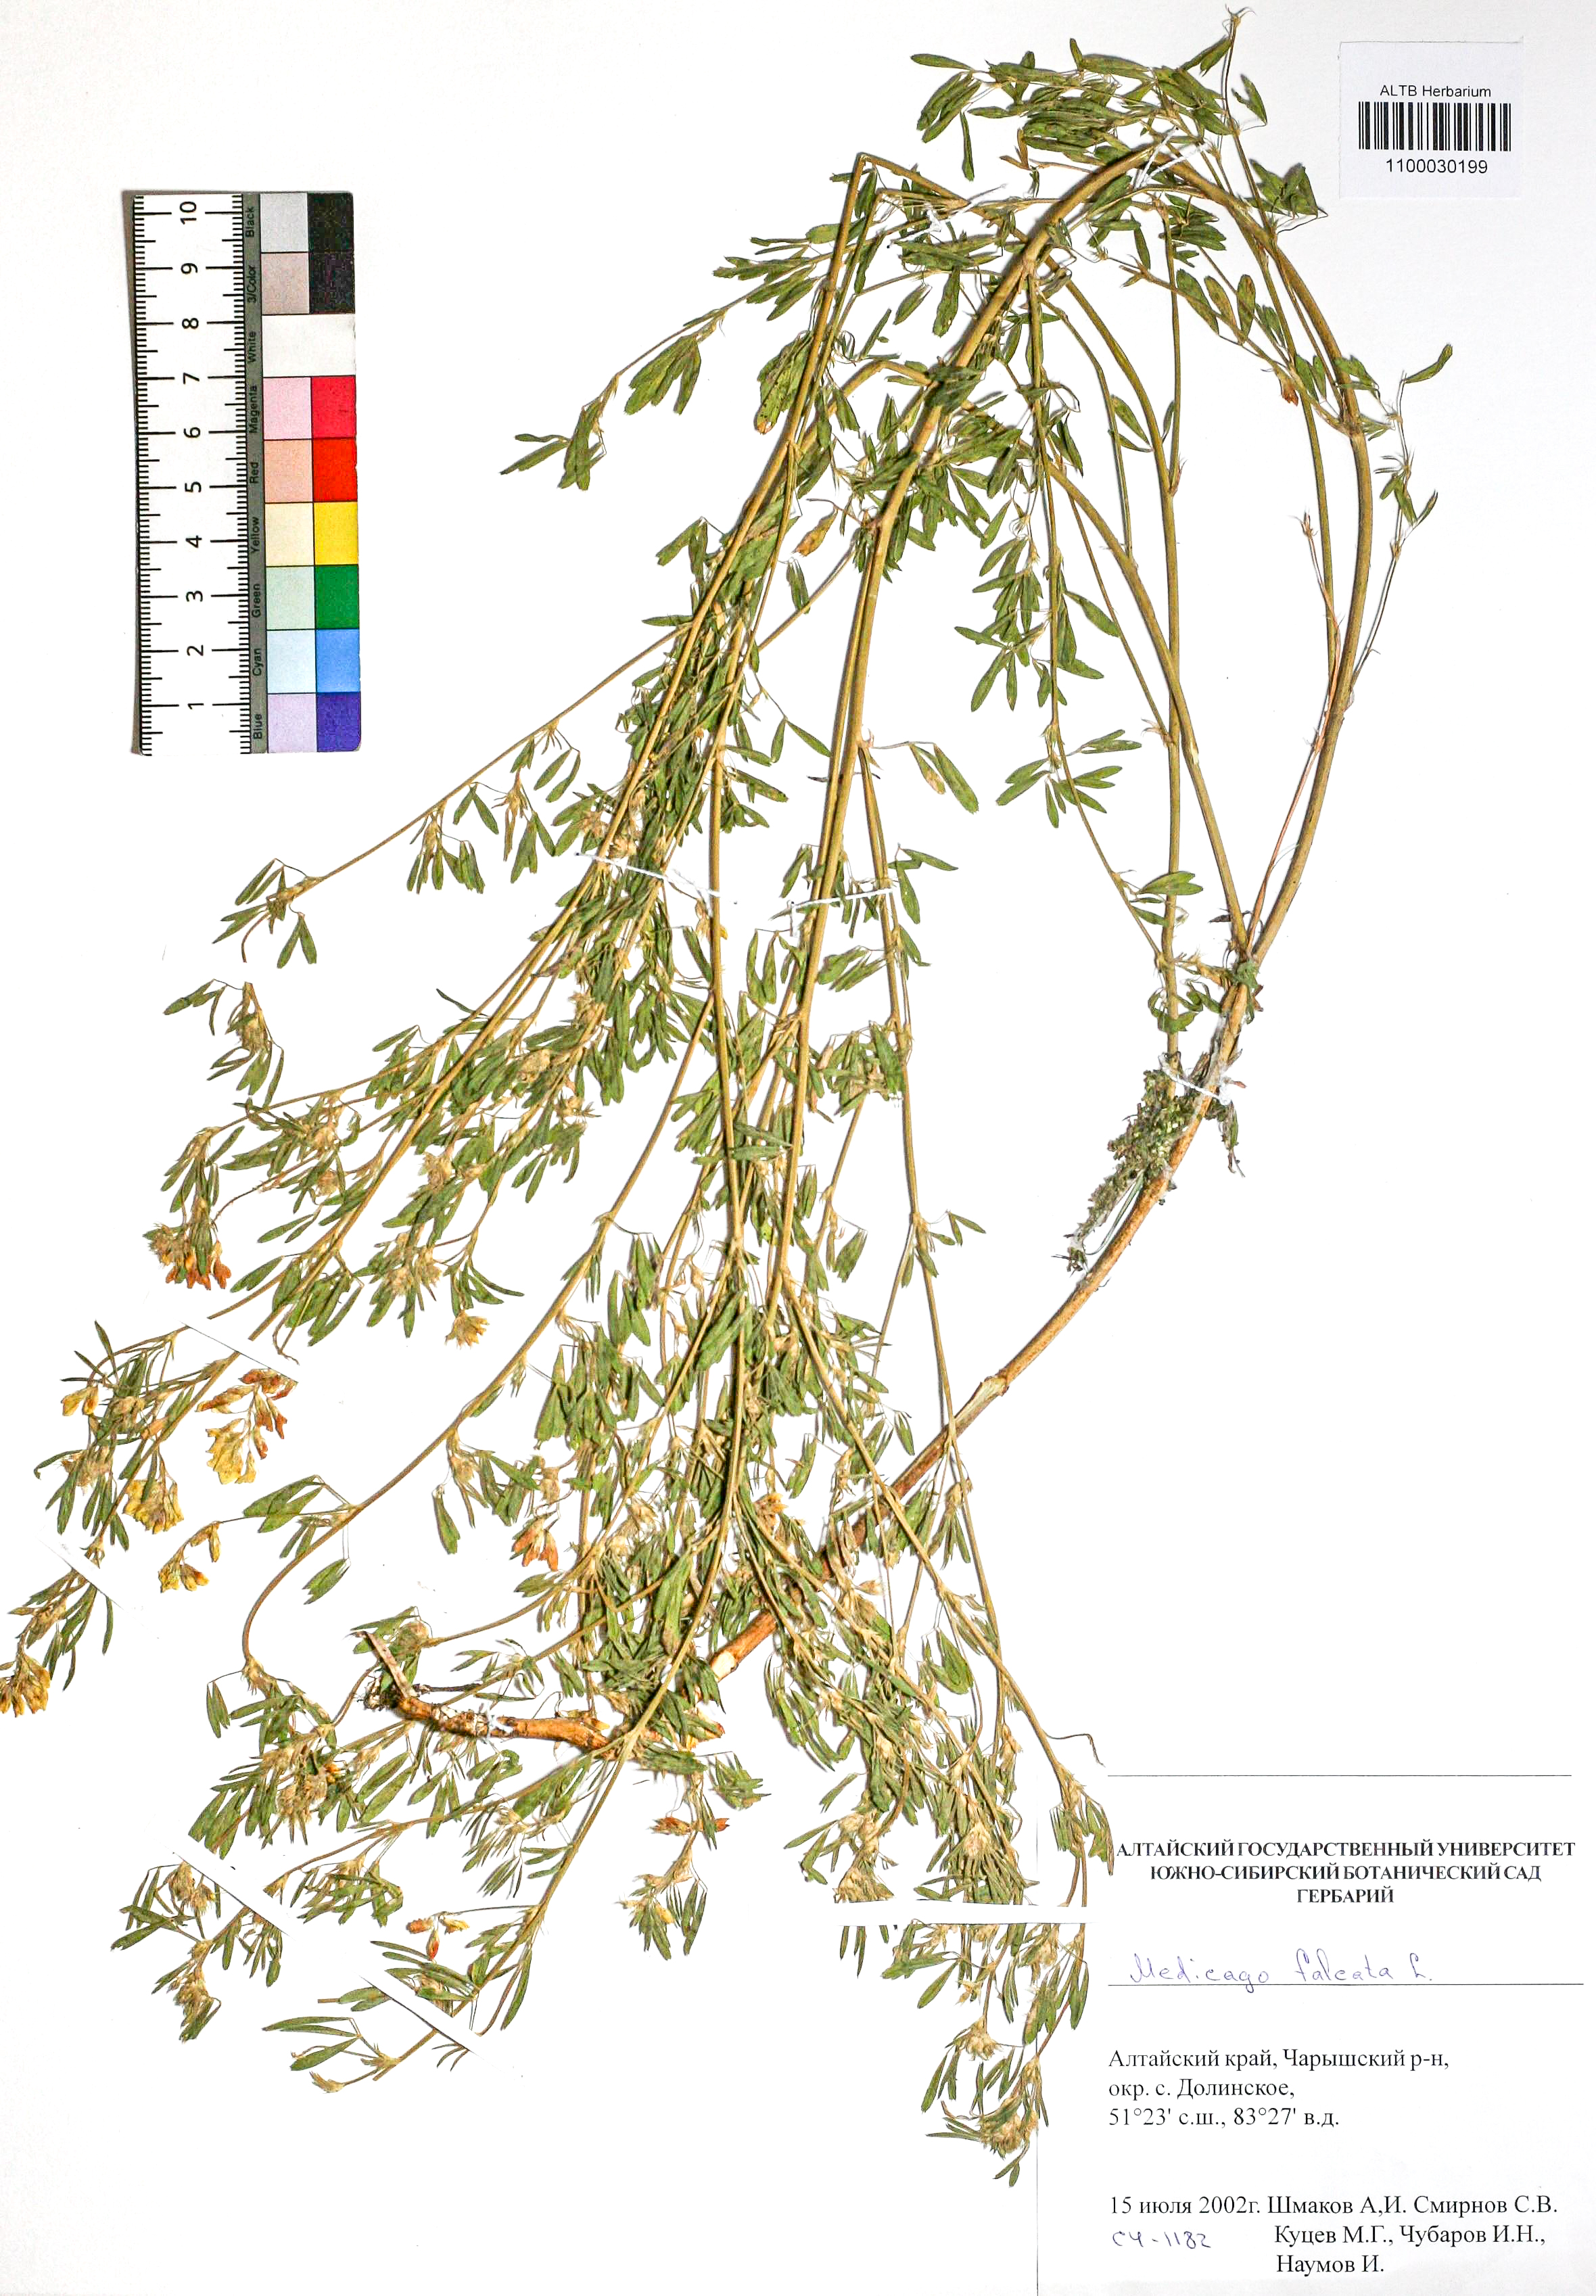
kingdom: Plantae
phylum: Tracheophyta
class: Magnoliopsida
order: Fabales
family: Fabaceae
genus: Medicago
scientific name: Medicago falcata
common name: Sickle medick
